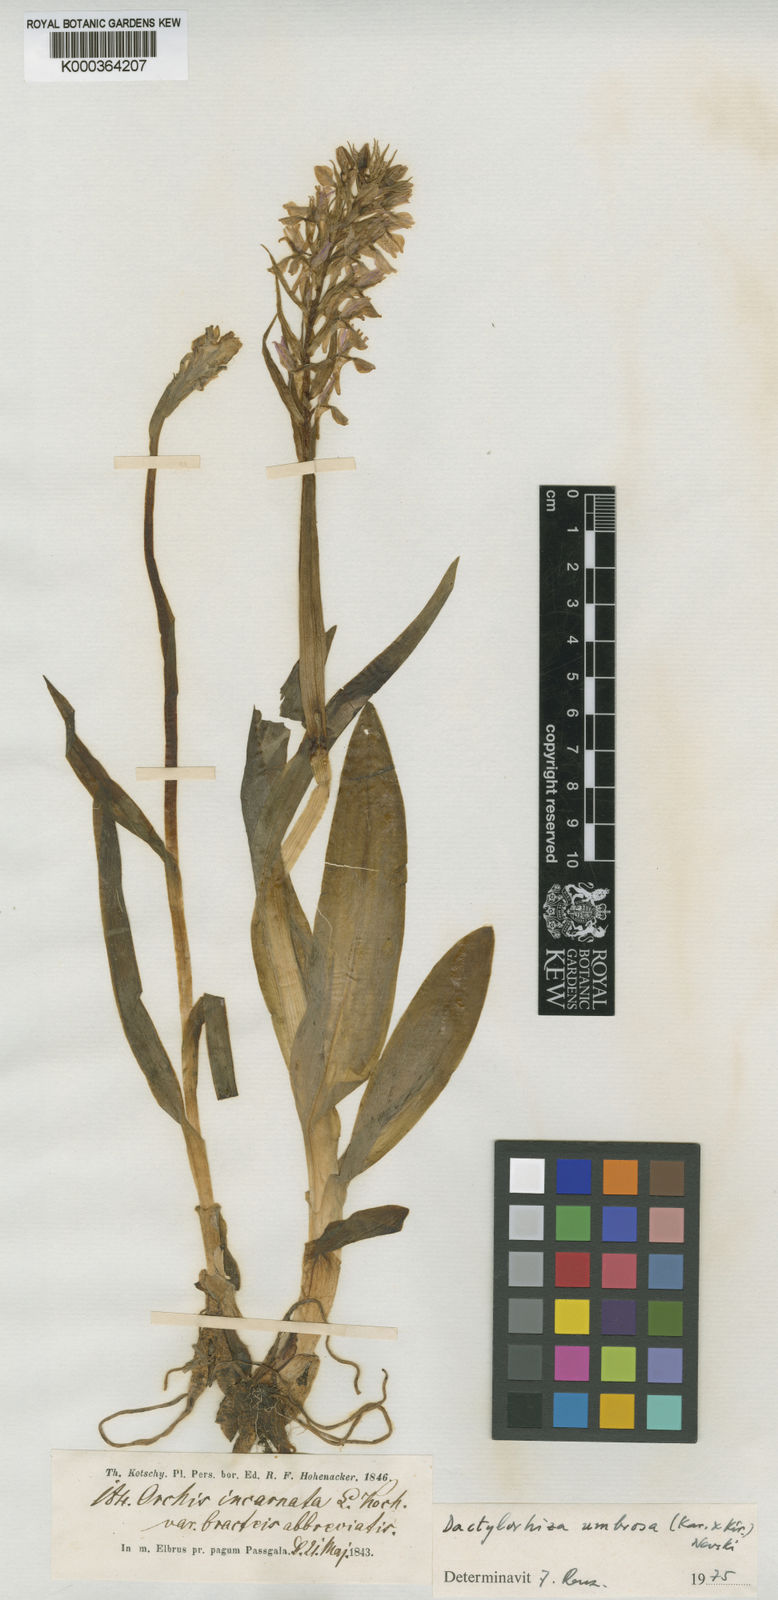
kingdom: Plantae
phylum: Tracheophyta
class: Liliopsida
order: Asparagales
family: Orchidaceae
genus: Dactylorhiza
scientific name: Dactylorhiza incarnata
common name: Early marsh-orchid
